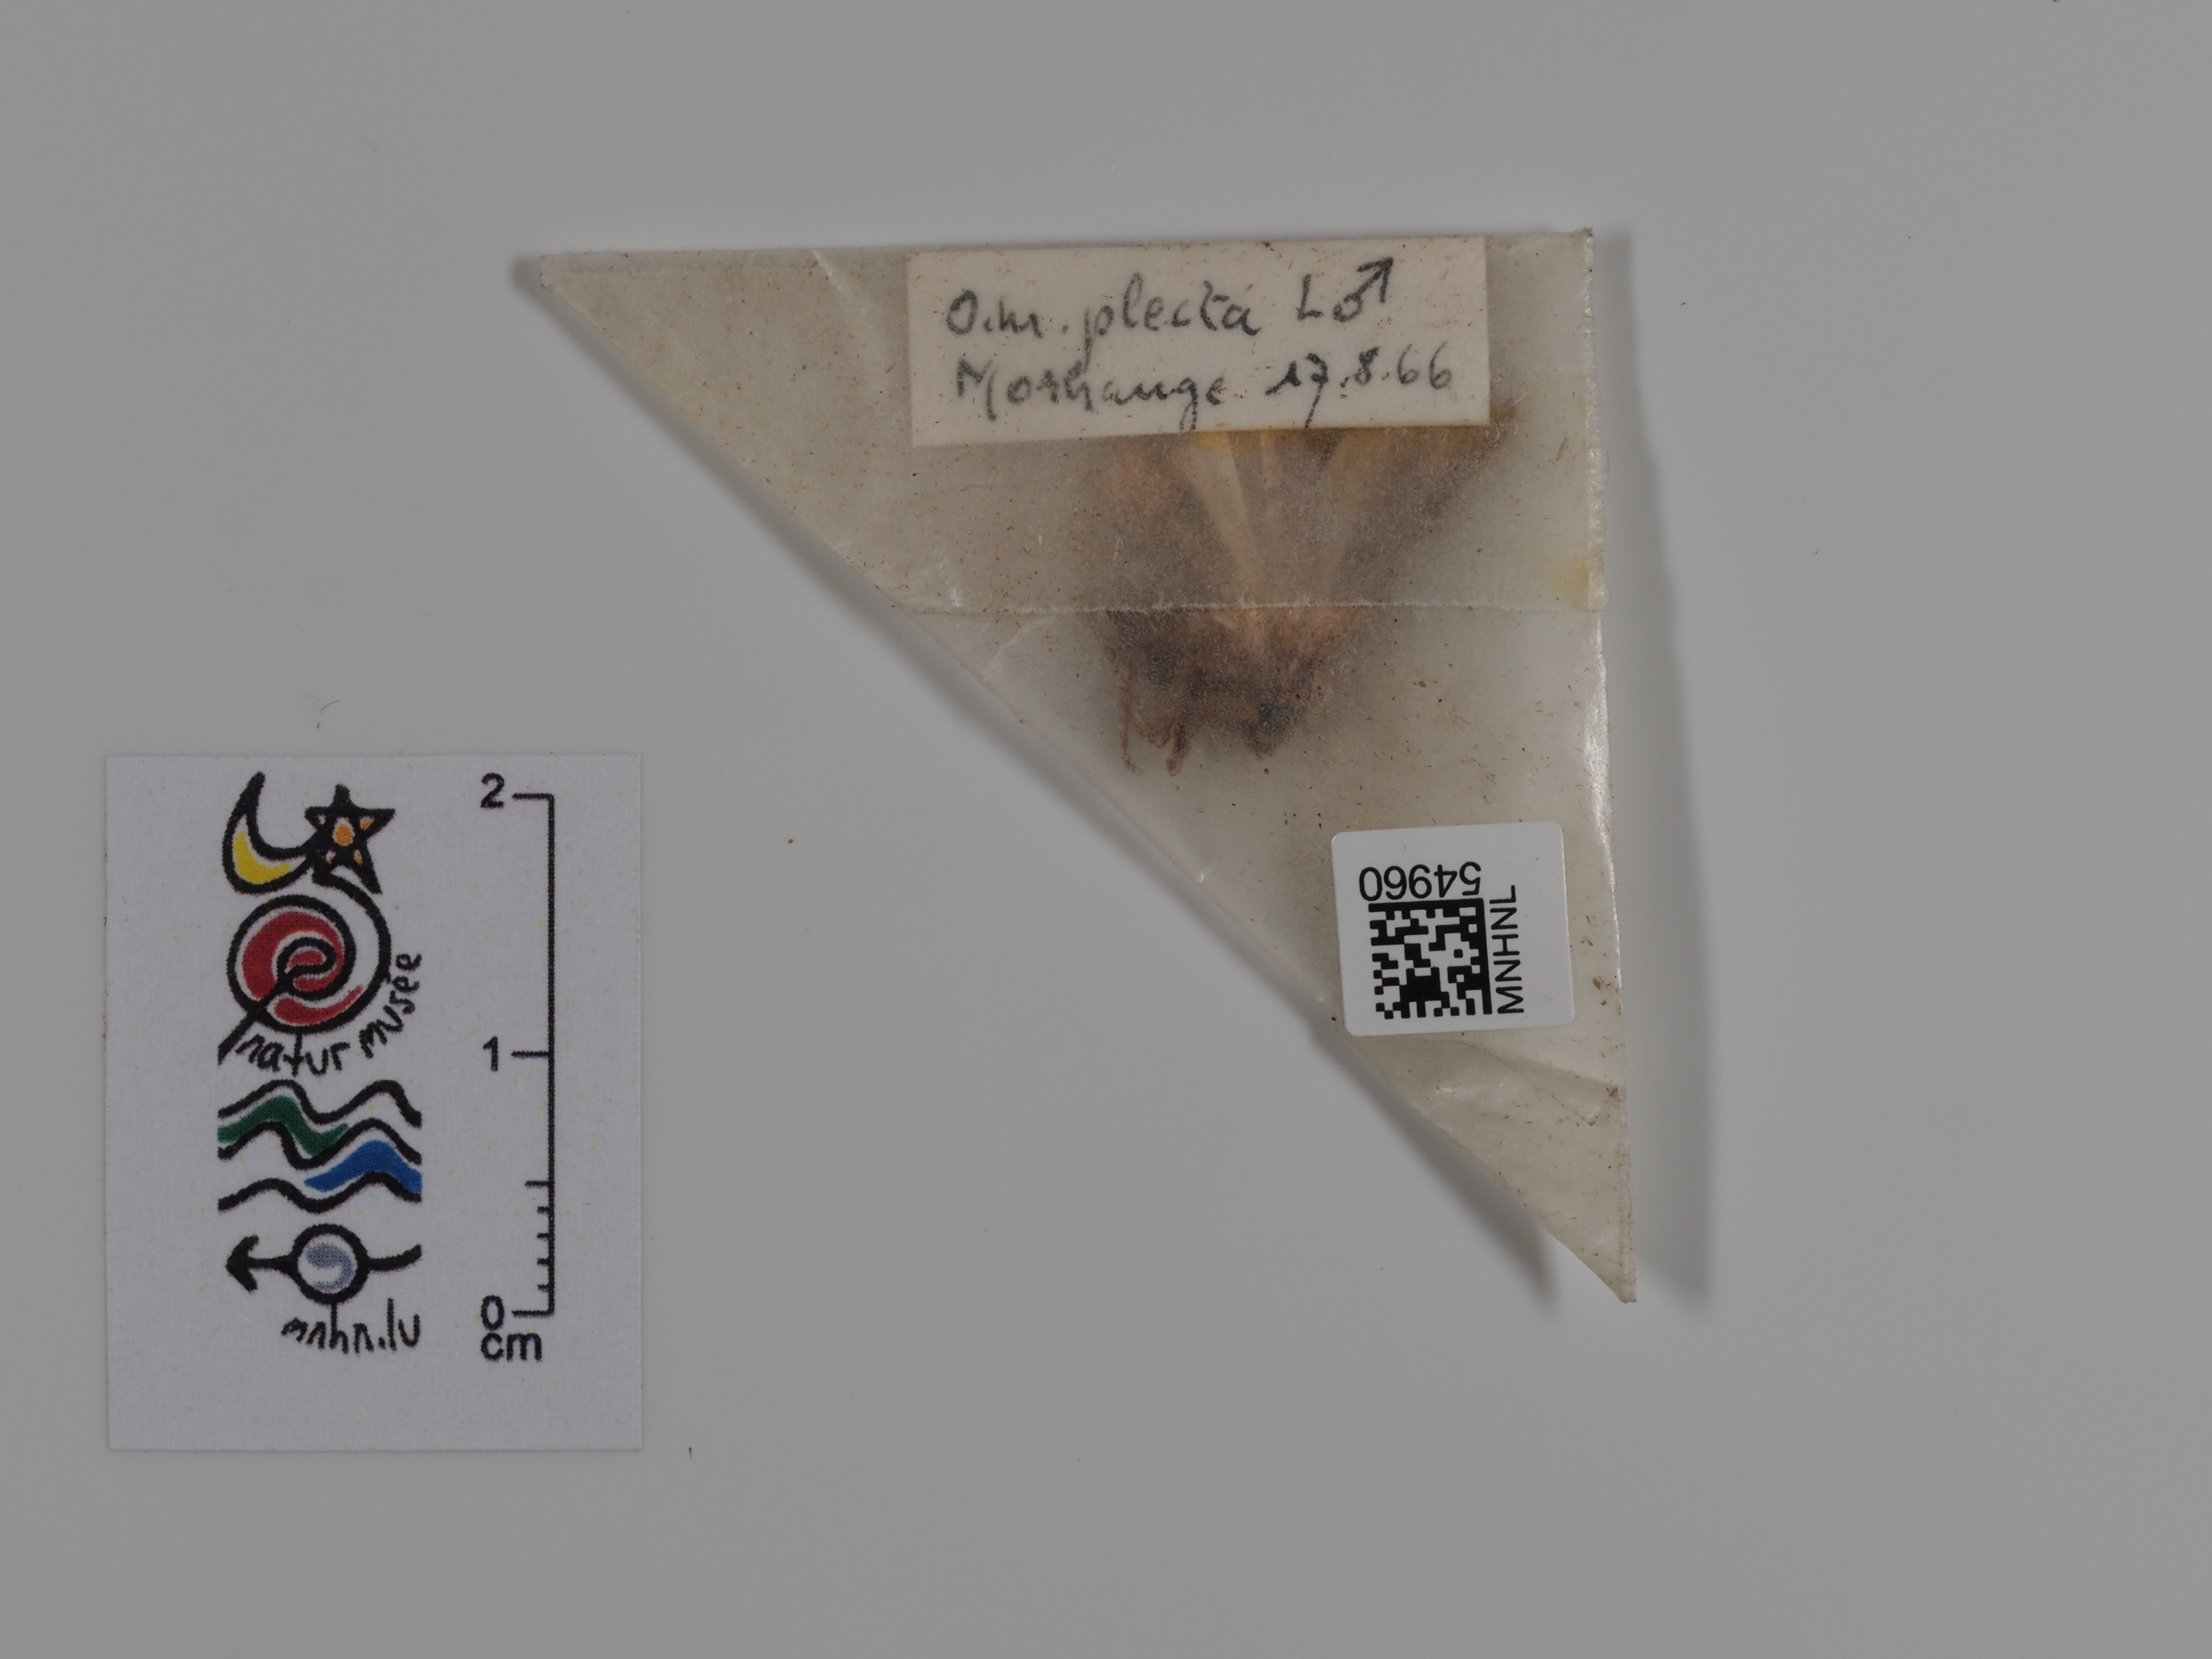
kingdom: Animalia
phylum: Arthropoda
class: Insecta
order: Lepidoptera
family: Noctuidae
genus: Ochropleura
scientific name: Ochropleura plecta
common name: Flame shoulder
